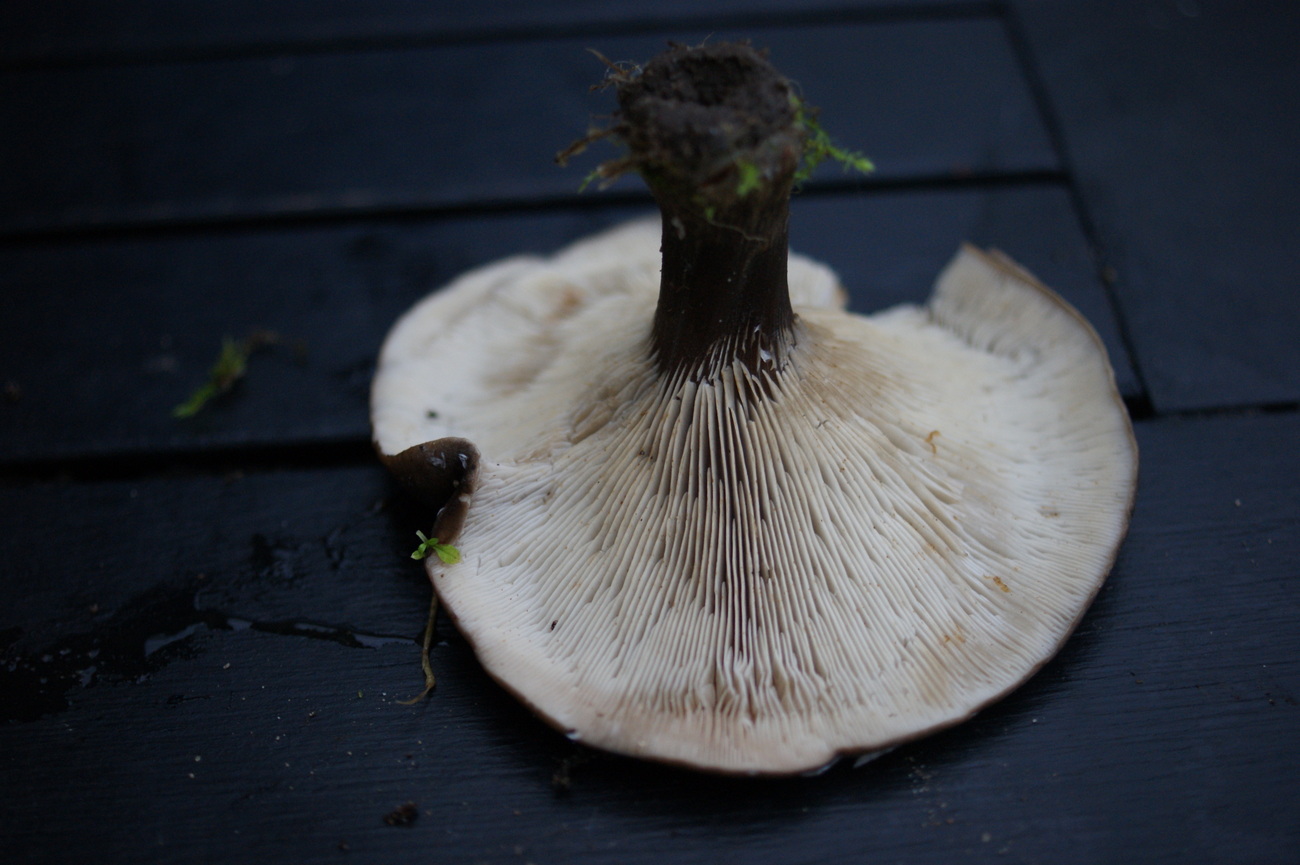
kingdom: Fungi
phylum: Basidiomycota
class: Agaricomycetes
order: Agaricales
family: Tricholomataceae
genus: Melanoleuca
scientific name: Melanoleuca
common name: munkehat
